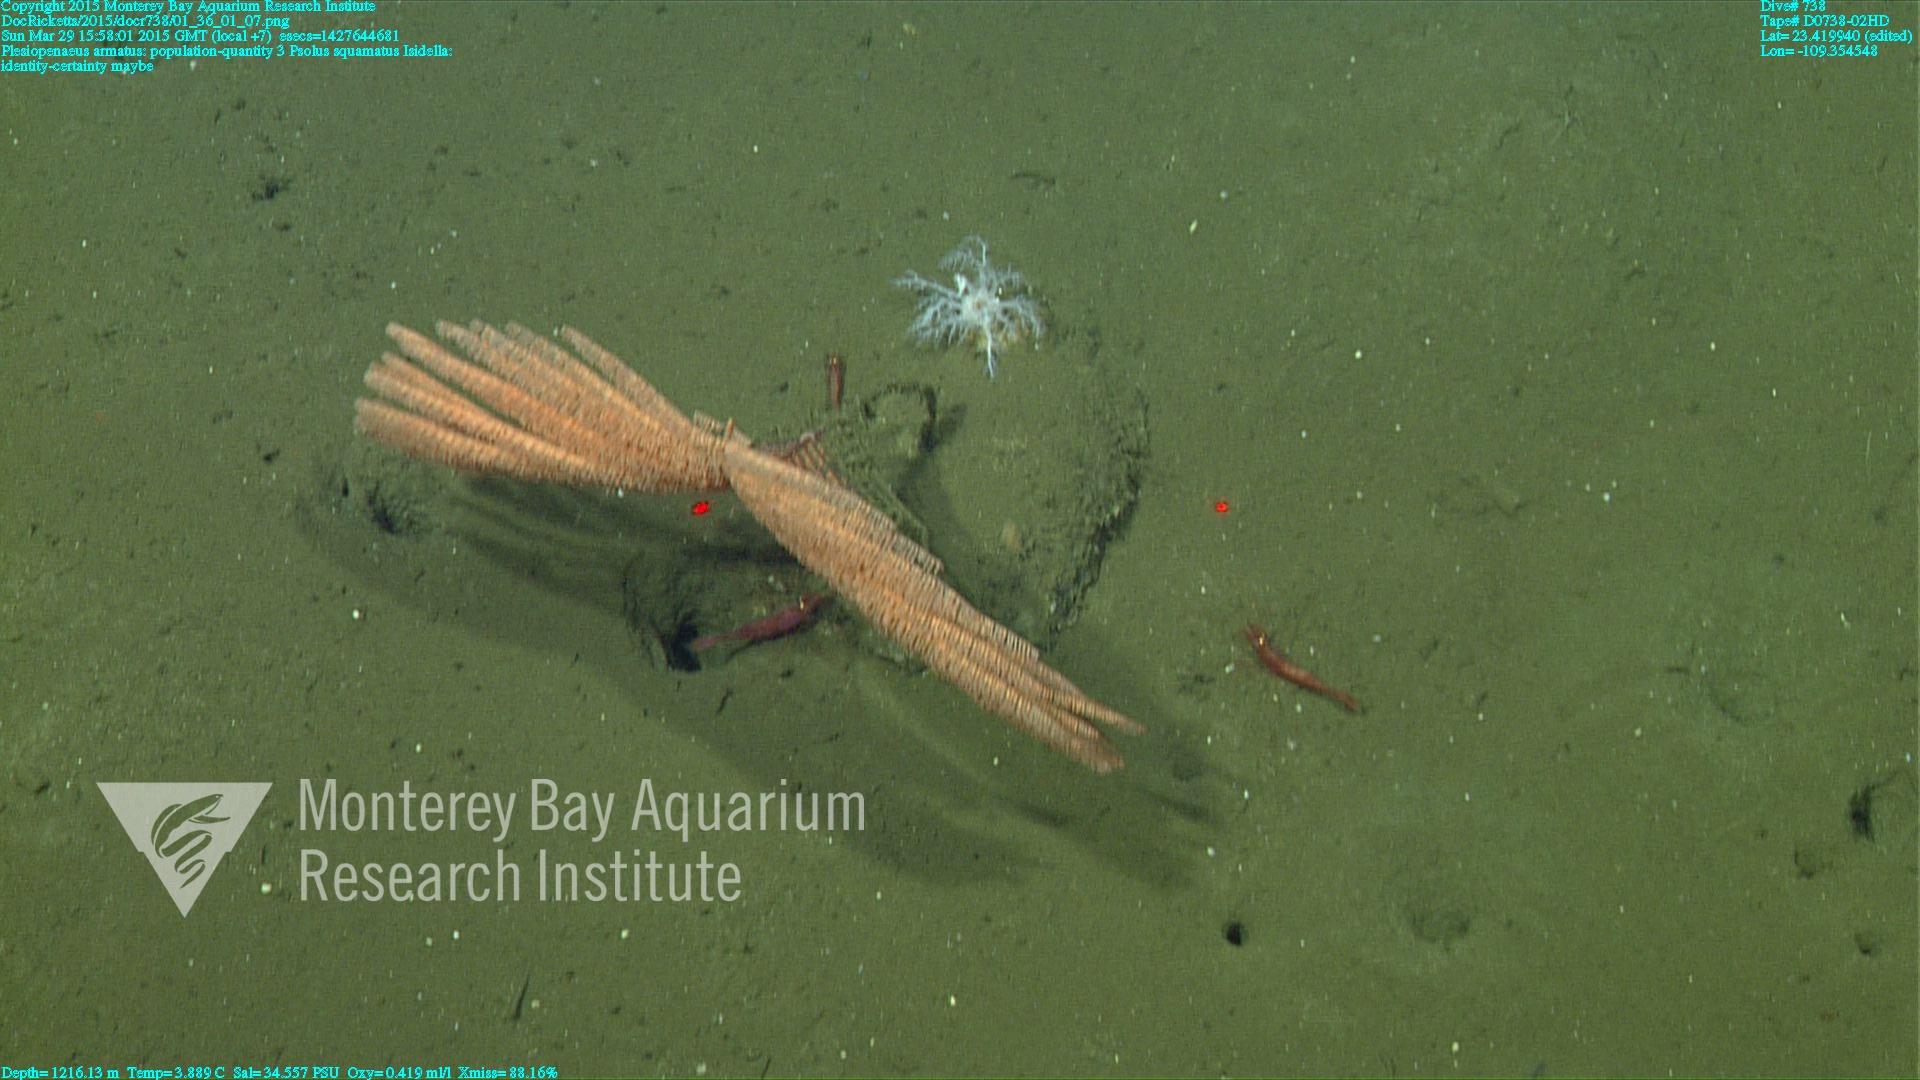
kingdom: Animalia
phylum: Cnidaria
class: Anthozoa
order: Antipatharia
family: Schizopathidae
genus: Bathypathes
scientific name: Bathypathes
